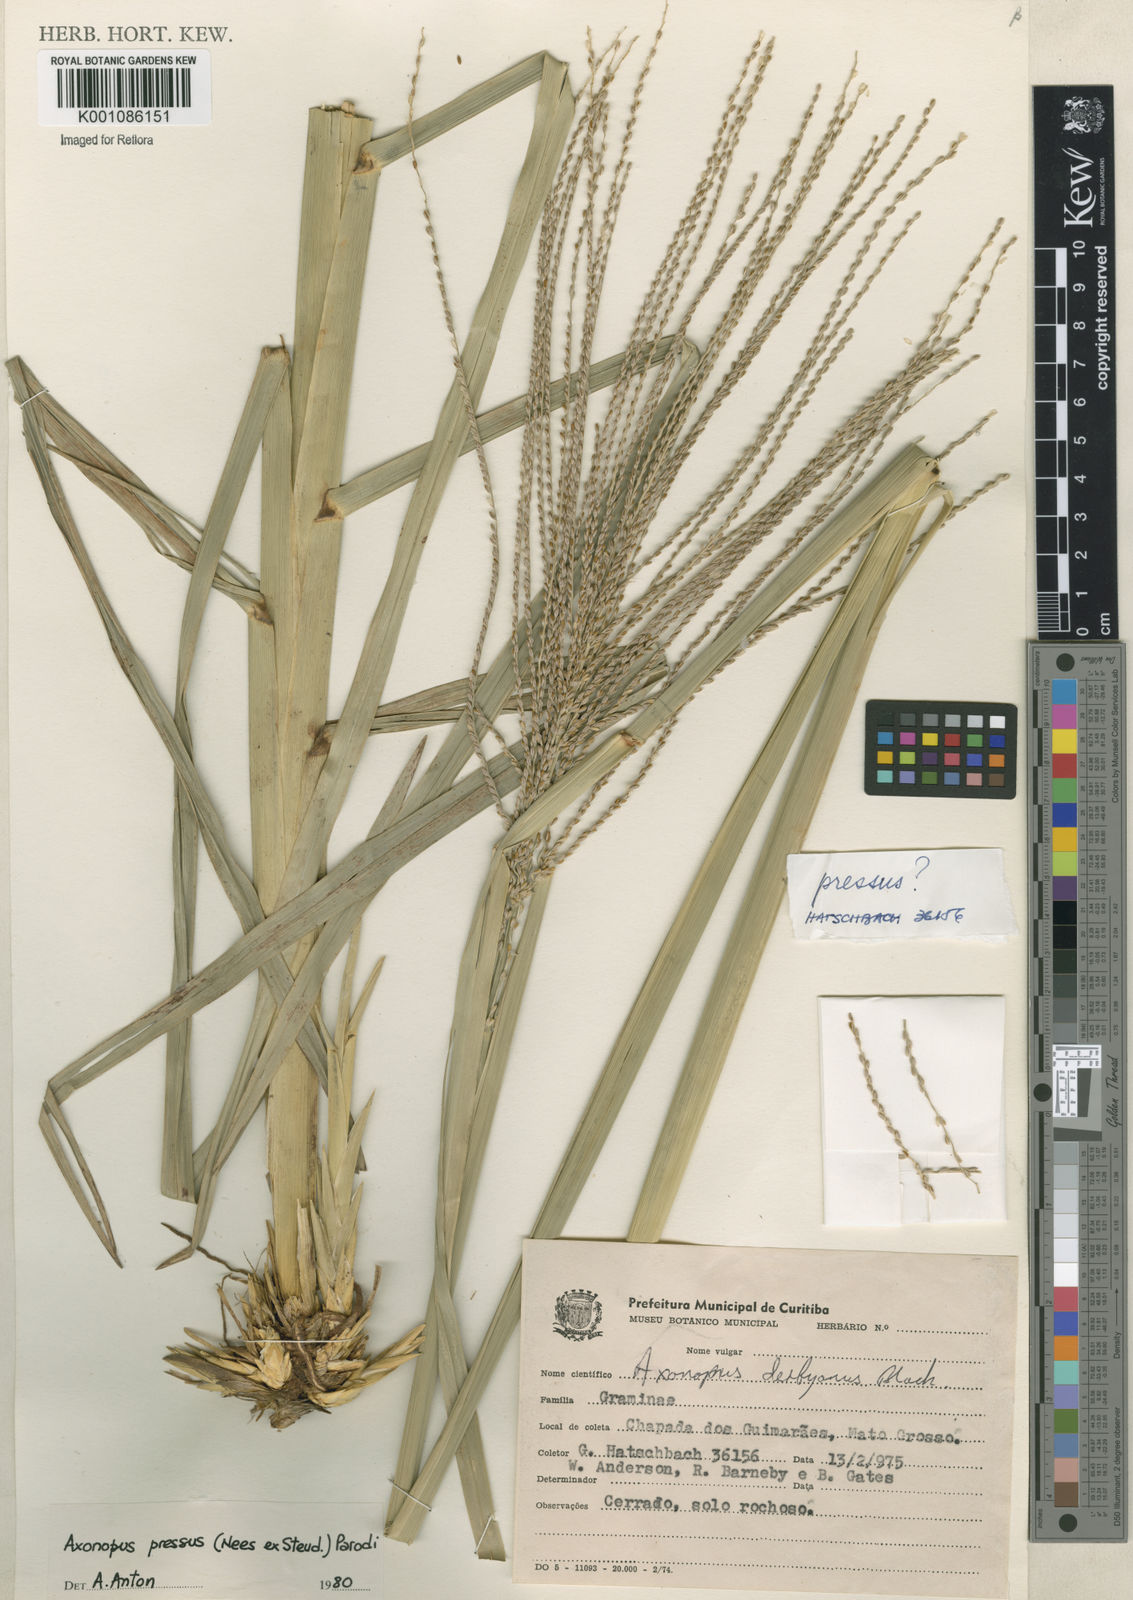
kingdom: Plantae
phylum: Tracheophyta
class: Liliopsida
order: Poales
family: Poaceae
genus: Axonopus
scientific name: Axonopus pressus
